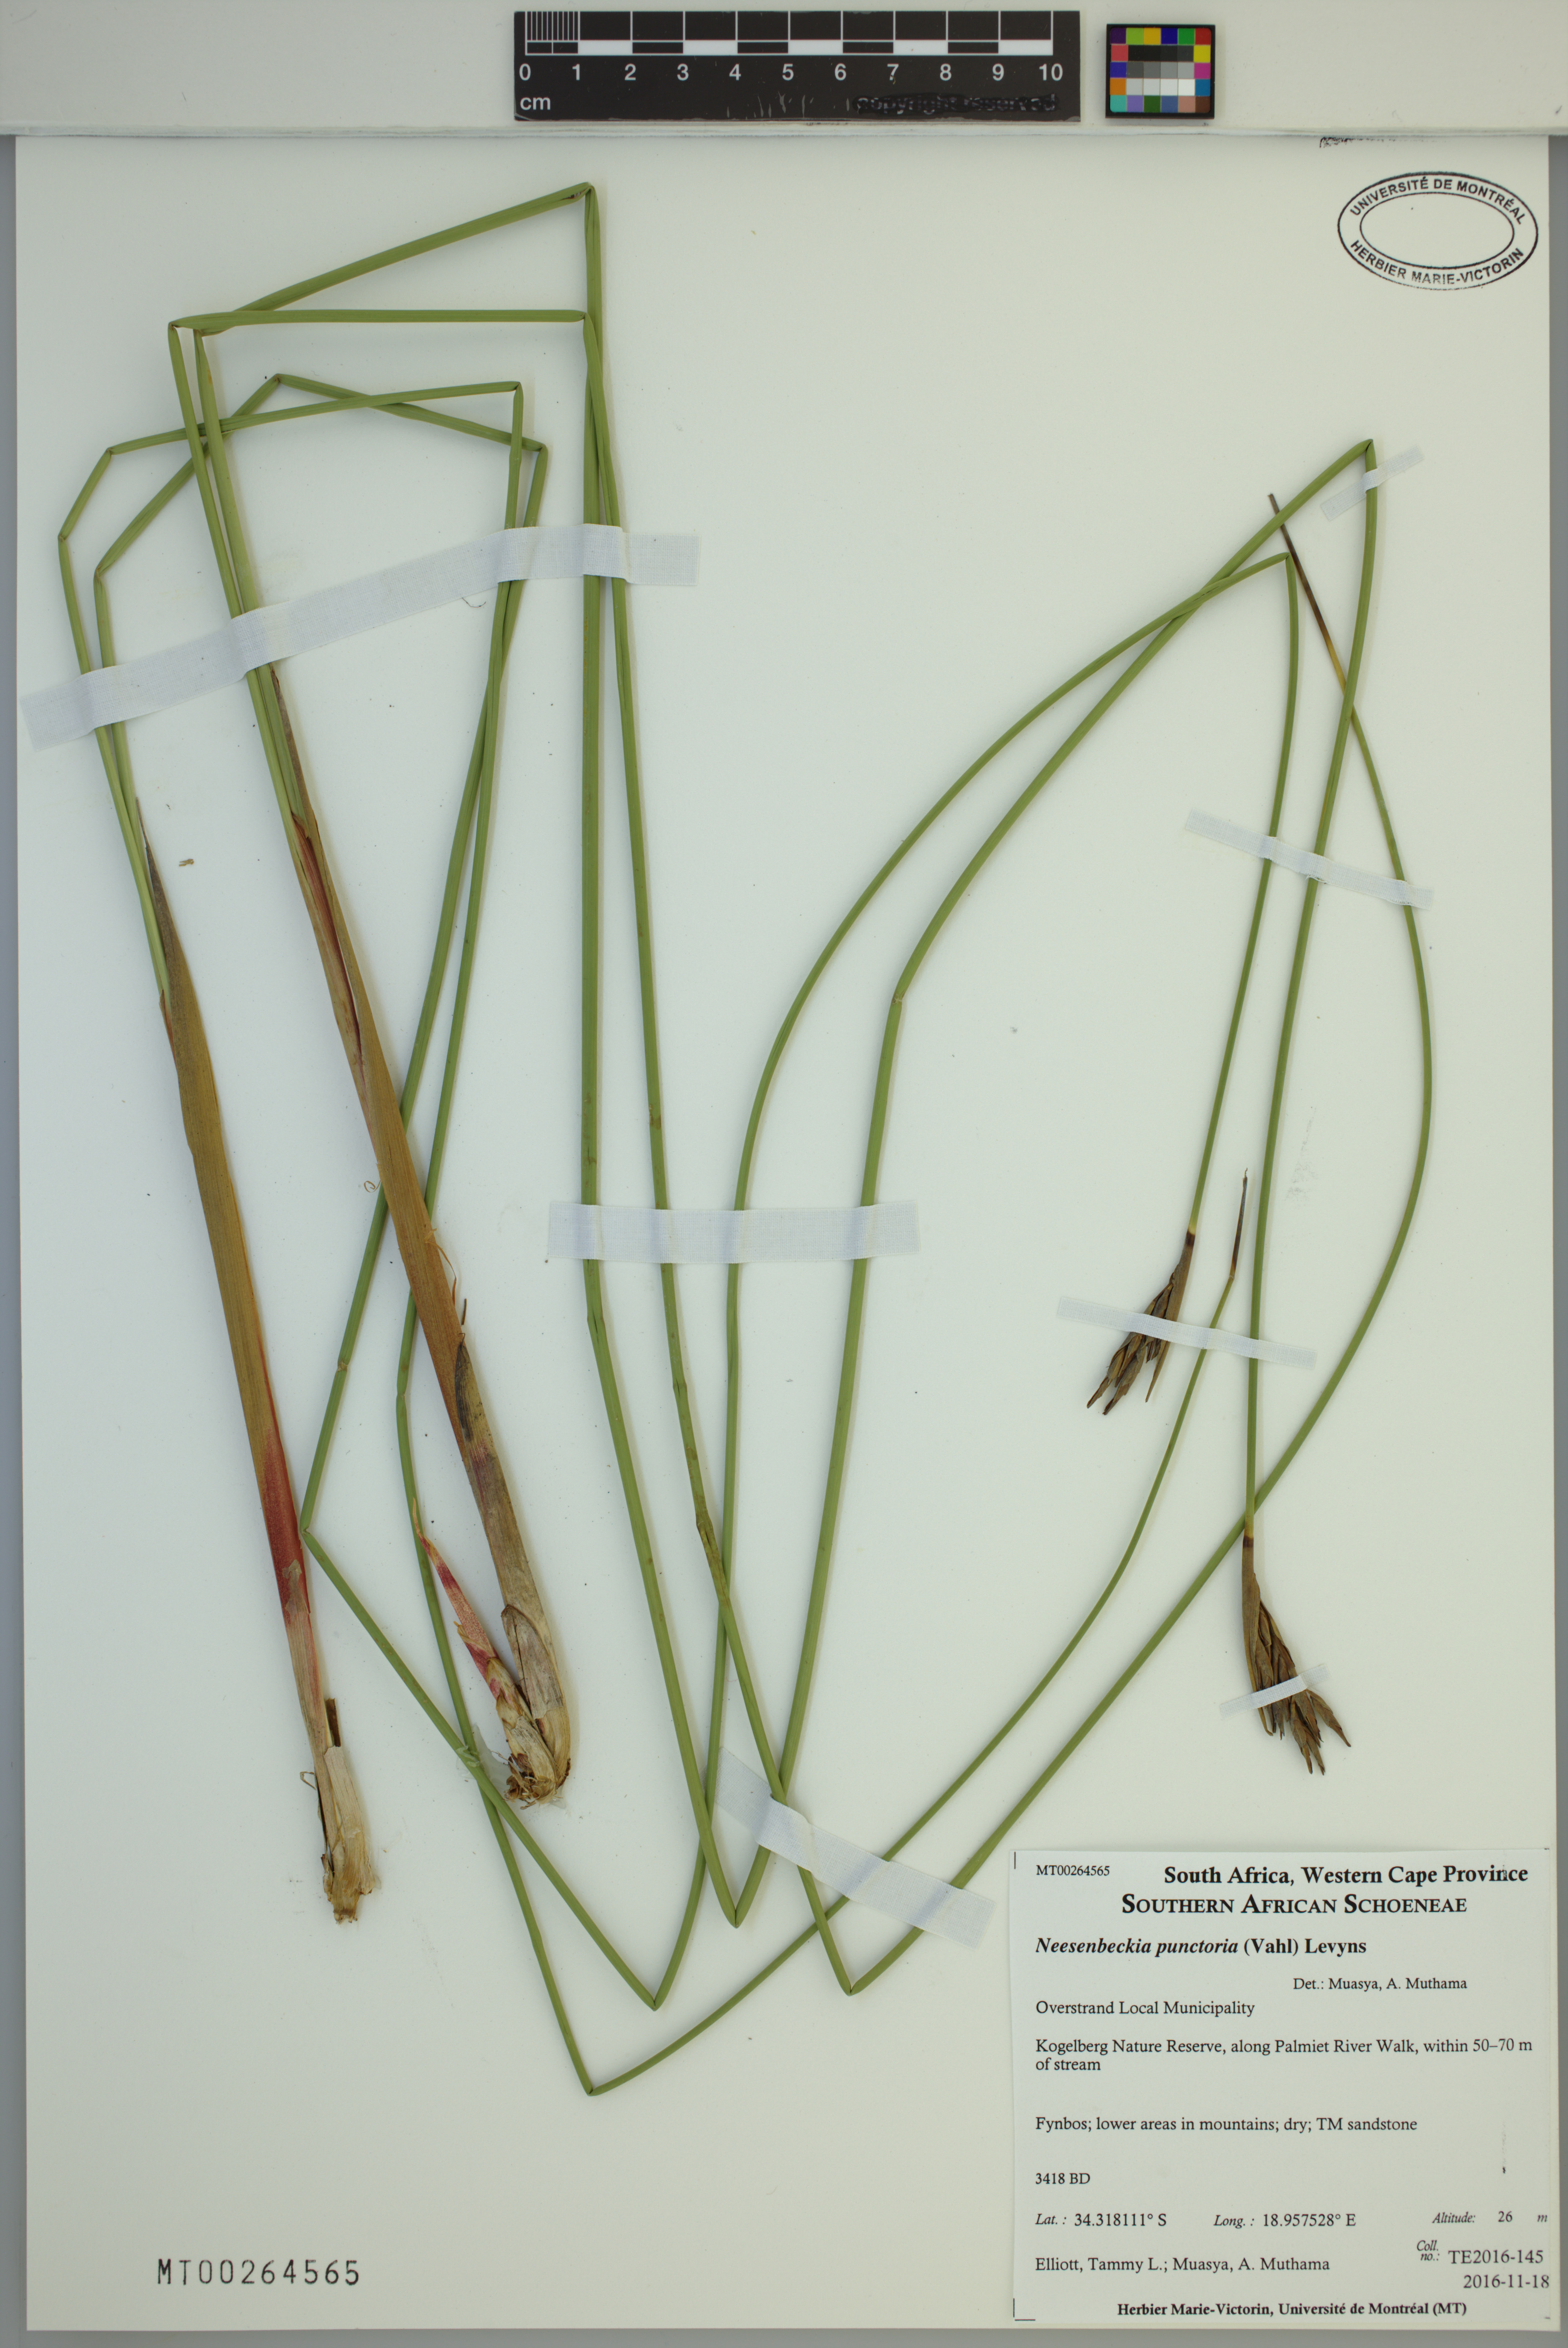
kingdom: Plantae
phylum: Tracheophyta
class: Liliopsida
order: Poales
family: Cyperaceae
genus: Neesenbeckia
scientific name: Neesenbeckia punctoria
